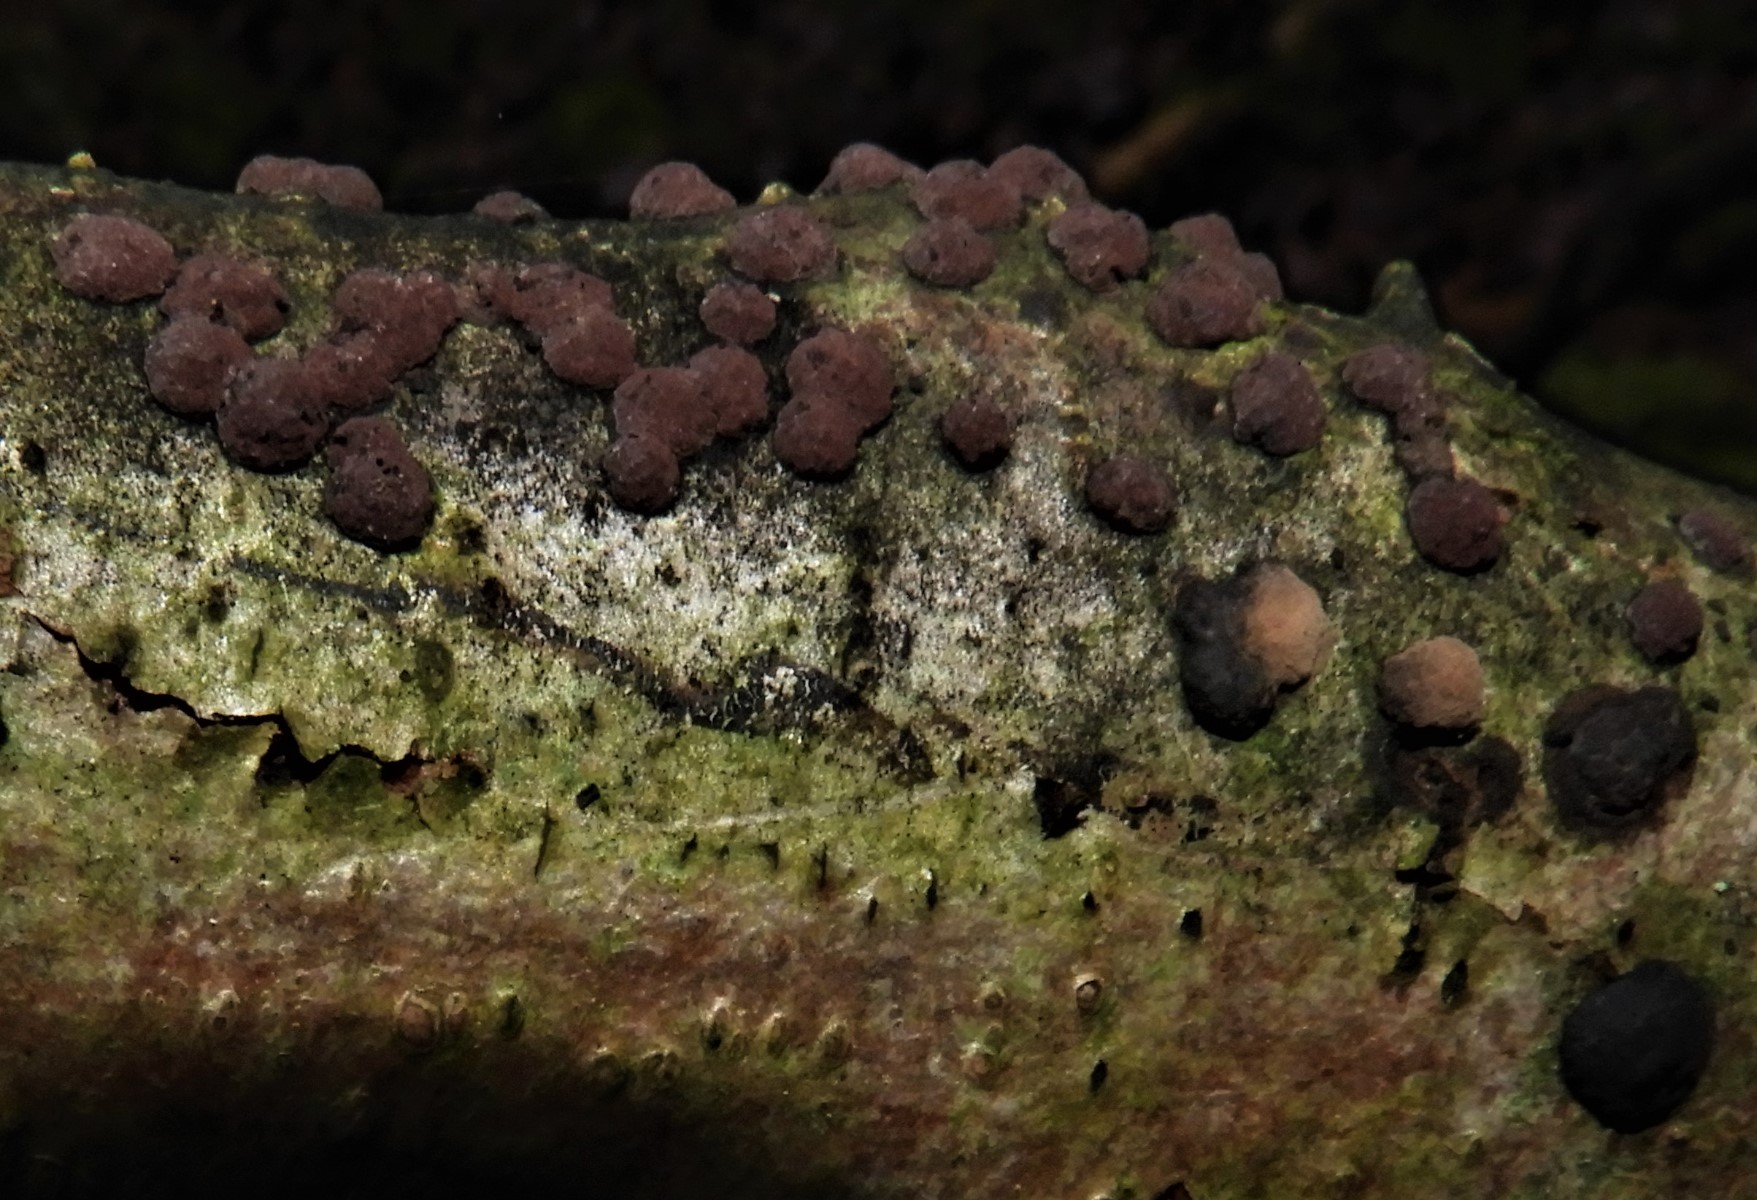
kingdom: Fungi
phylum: Ascomycota
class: Sordariomycetes
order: Xylariales
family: Hypoxylaceae
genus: Hypoxylon
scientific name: Hypoxylon fuscum
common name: kegleformet kulbær
